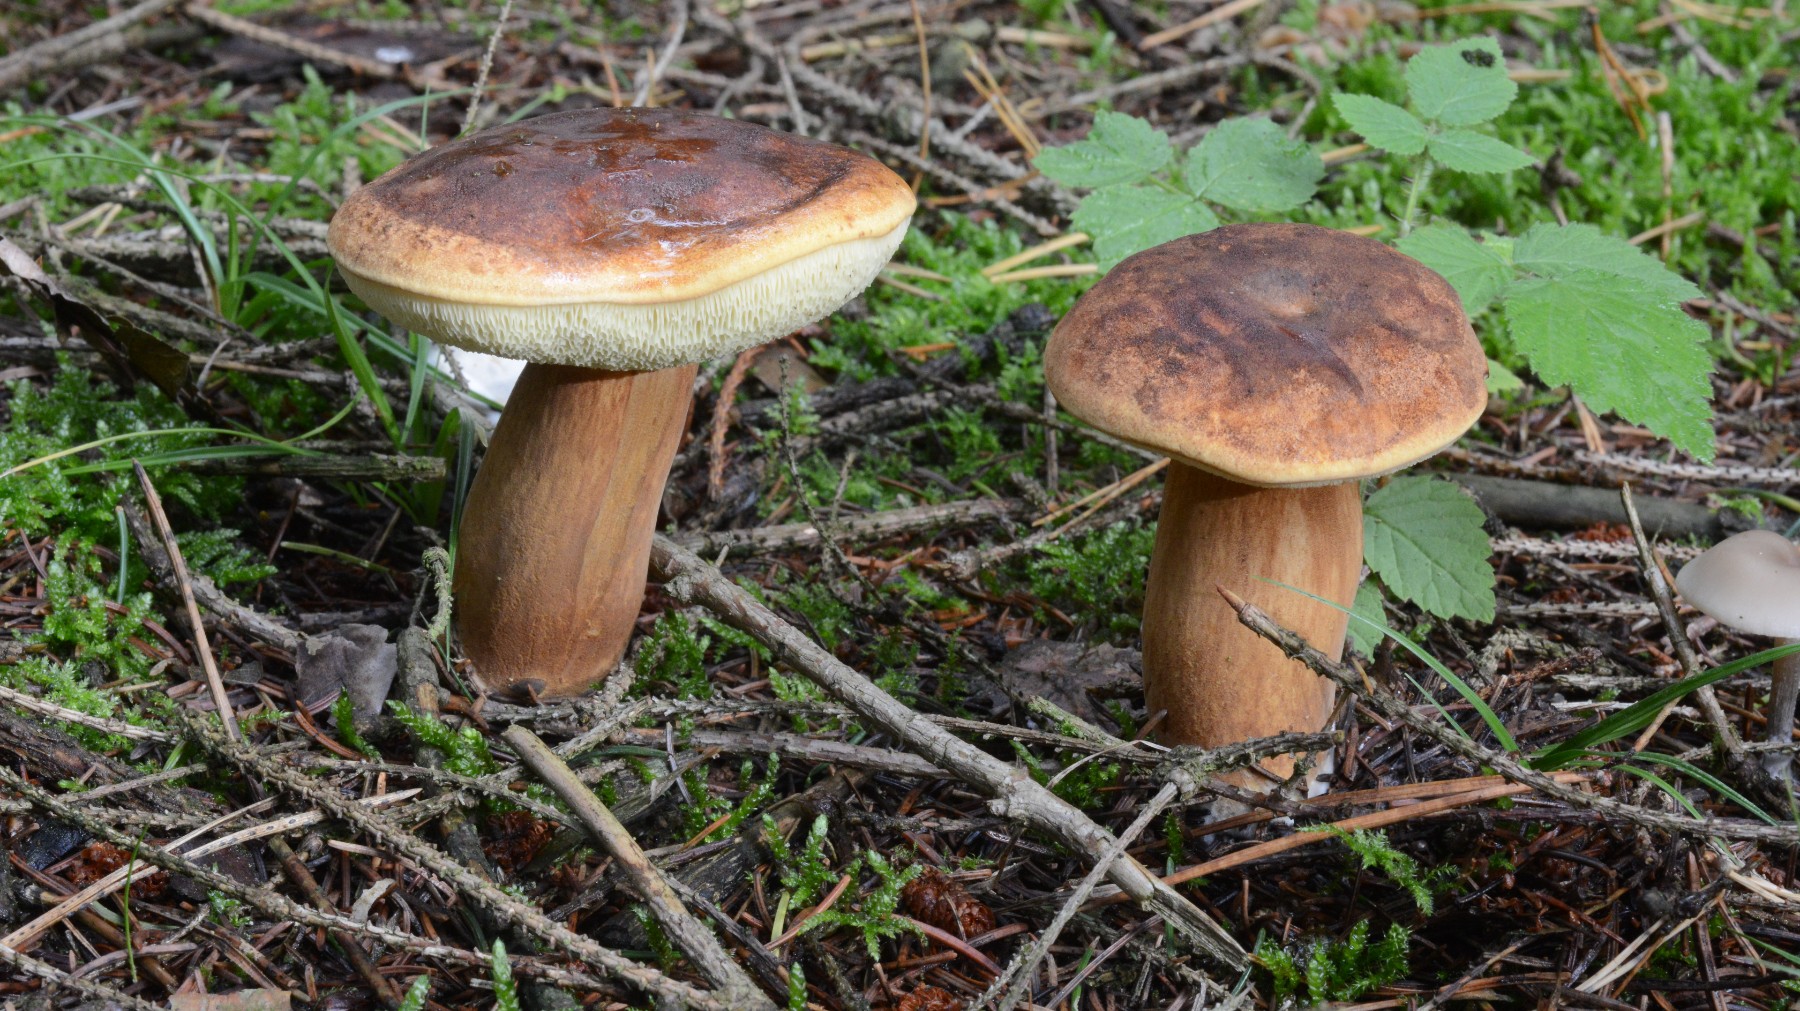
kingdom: Fungi
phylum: Basidiomycota
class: Agaricomycetes
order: Boletales
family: Boletaceae
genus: Imleria
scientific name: Imleria badia
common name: brunstokket rørhat
